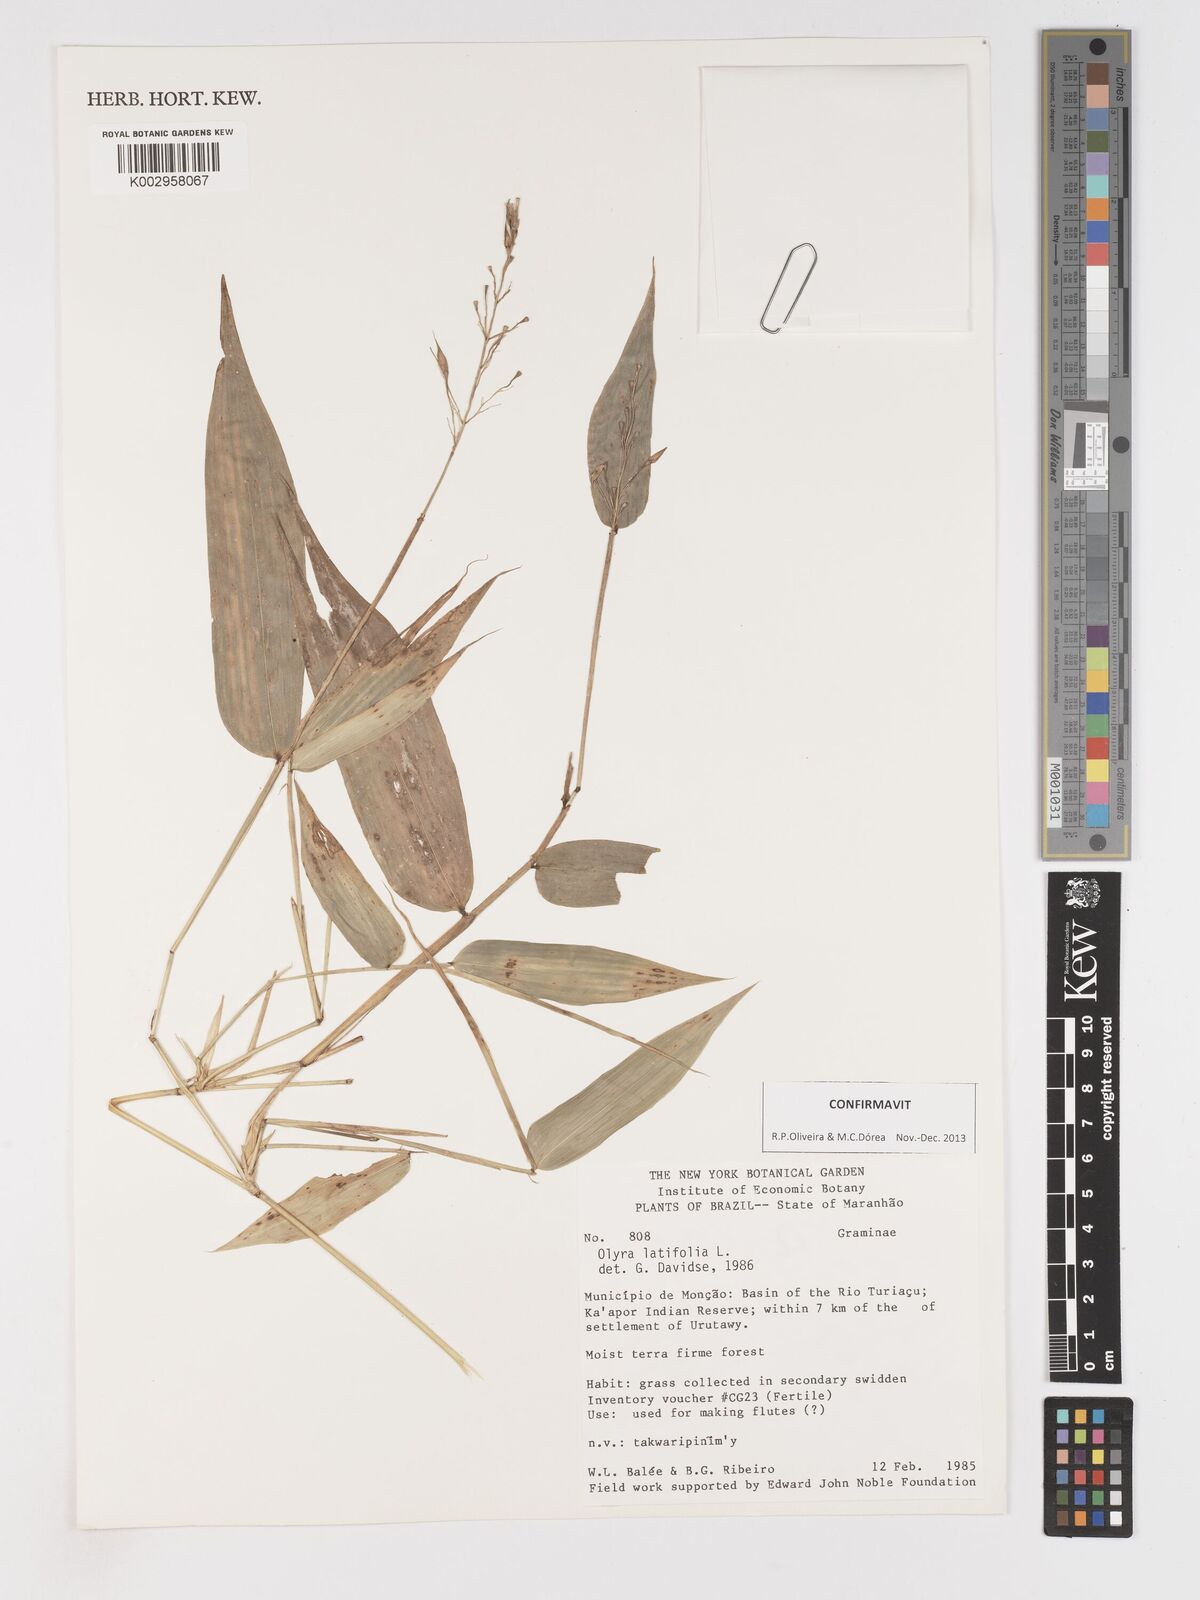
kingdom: Plantae
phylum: Tracheophyta
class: Liliopsida
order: Poales
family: Poaceae
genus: Olyra
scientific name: Olyra latifolia
